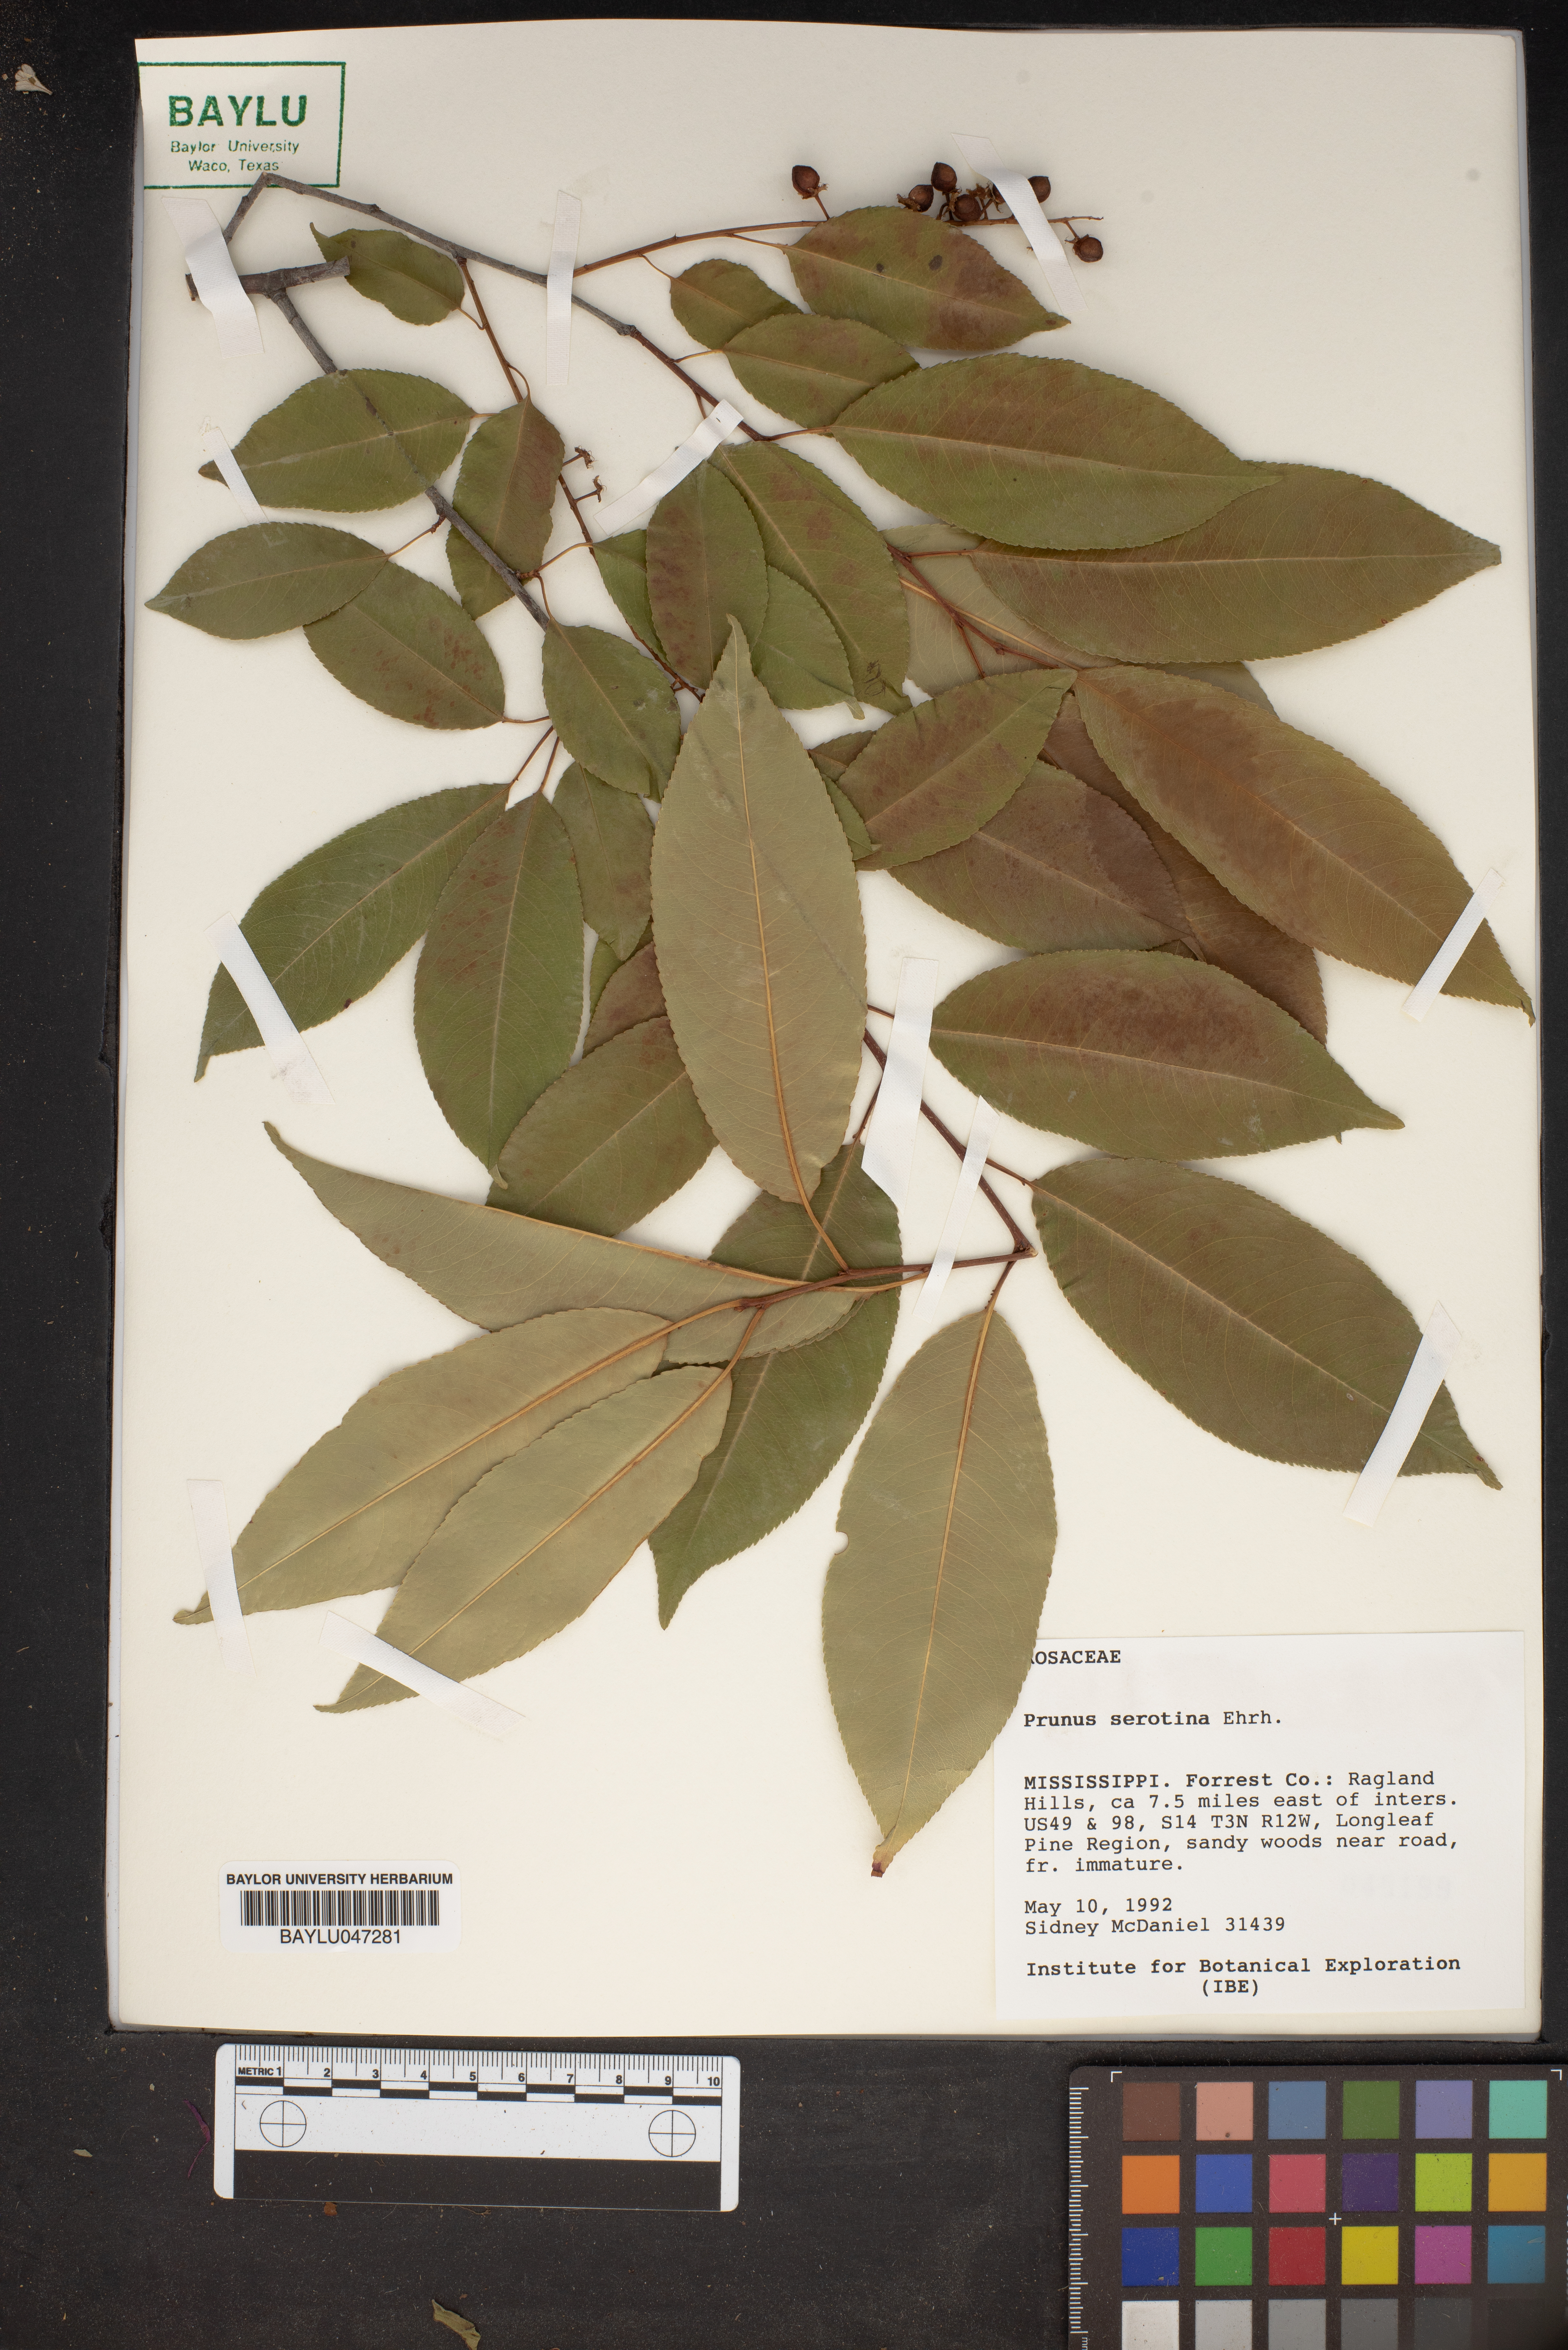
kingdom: Plantae
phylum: Tracheophyta
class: Magnoliopsida
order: Rosales
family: Rosaceae
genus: Prunus
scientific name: Prunus serotina
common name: Black cherry
